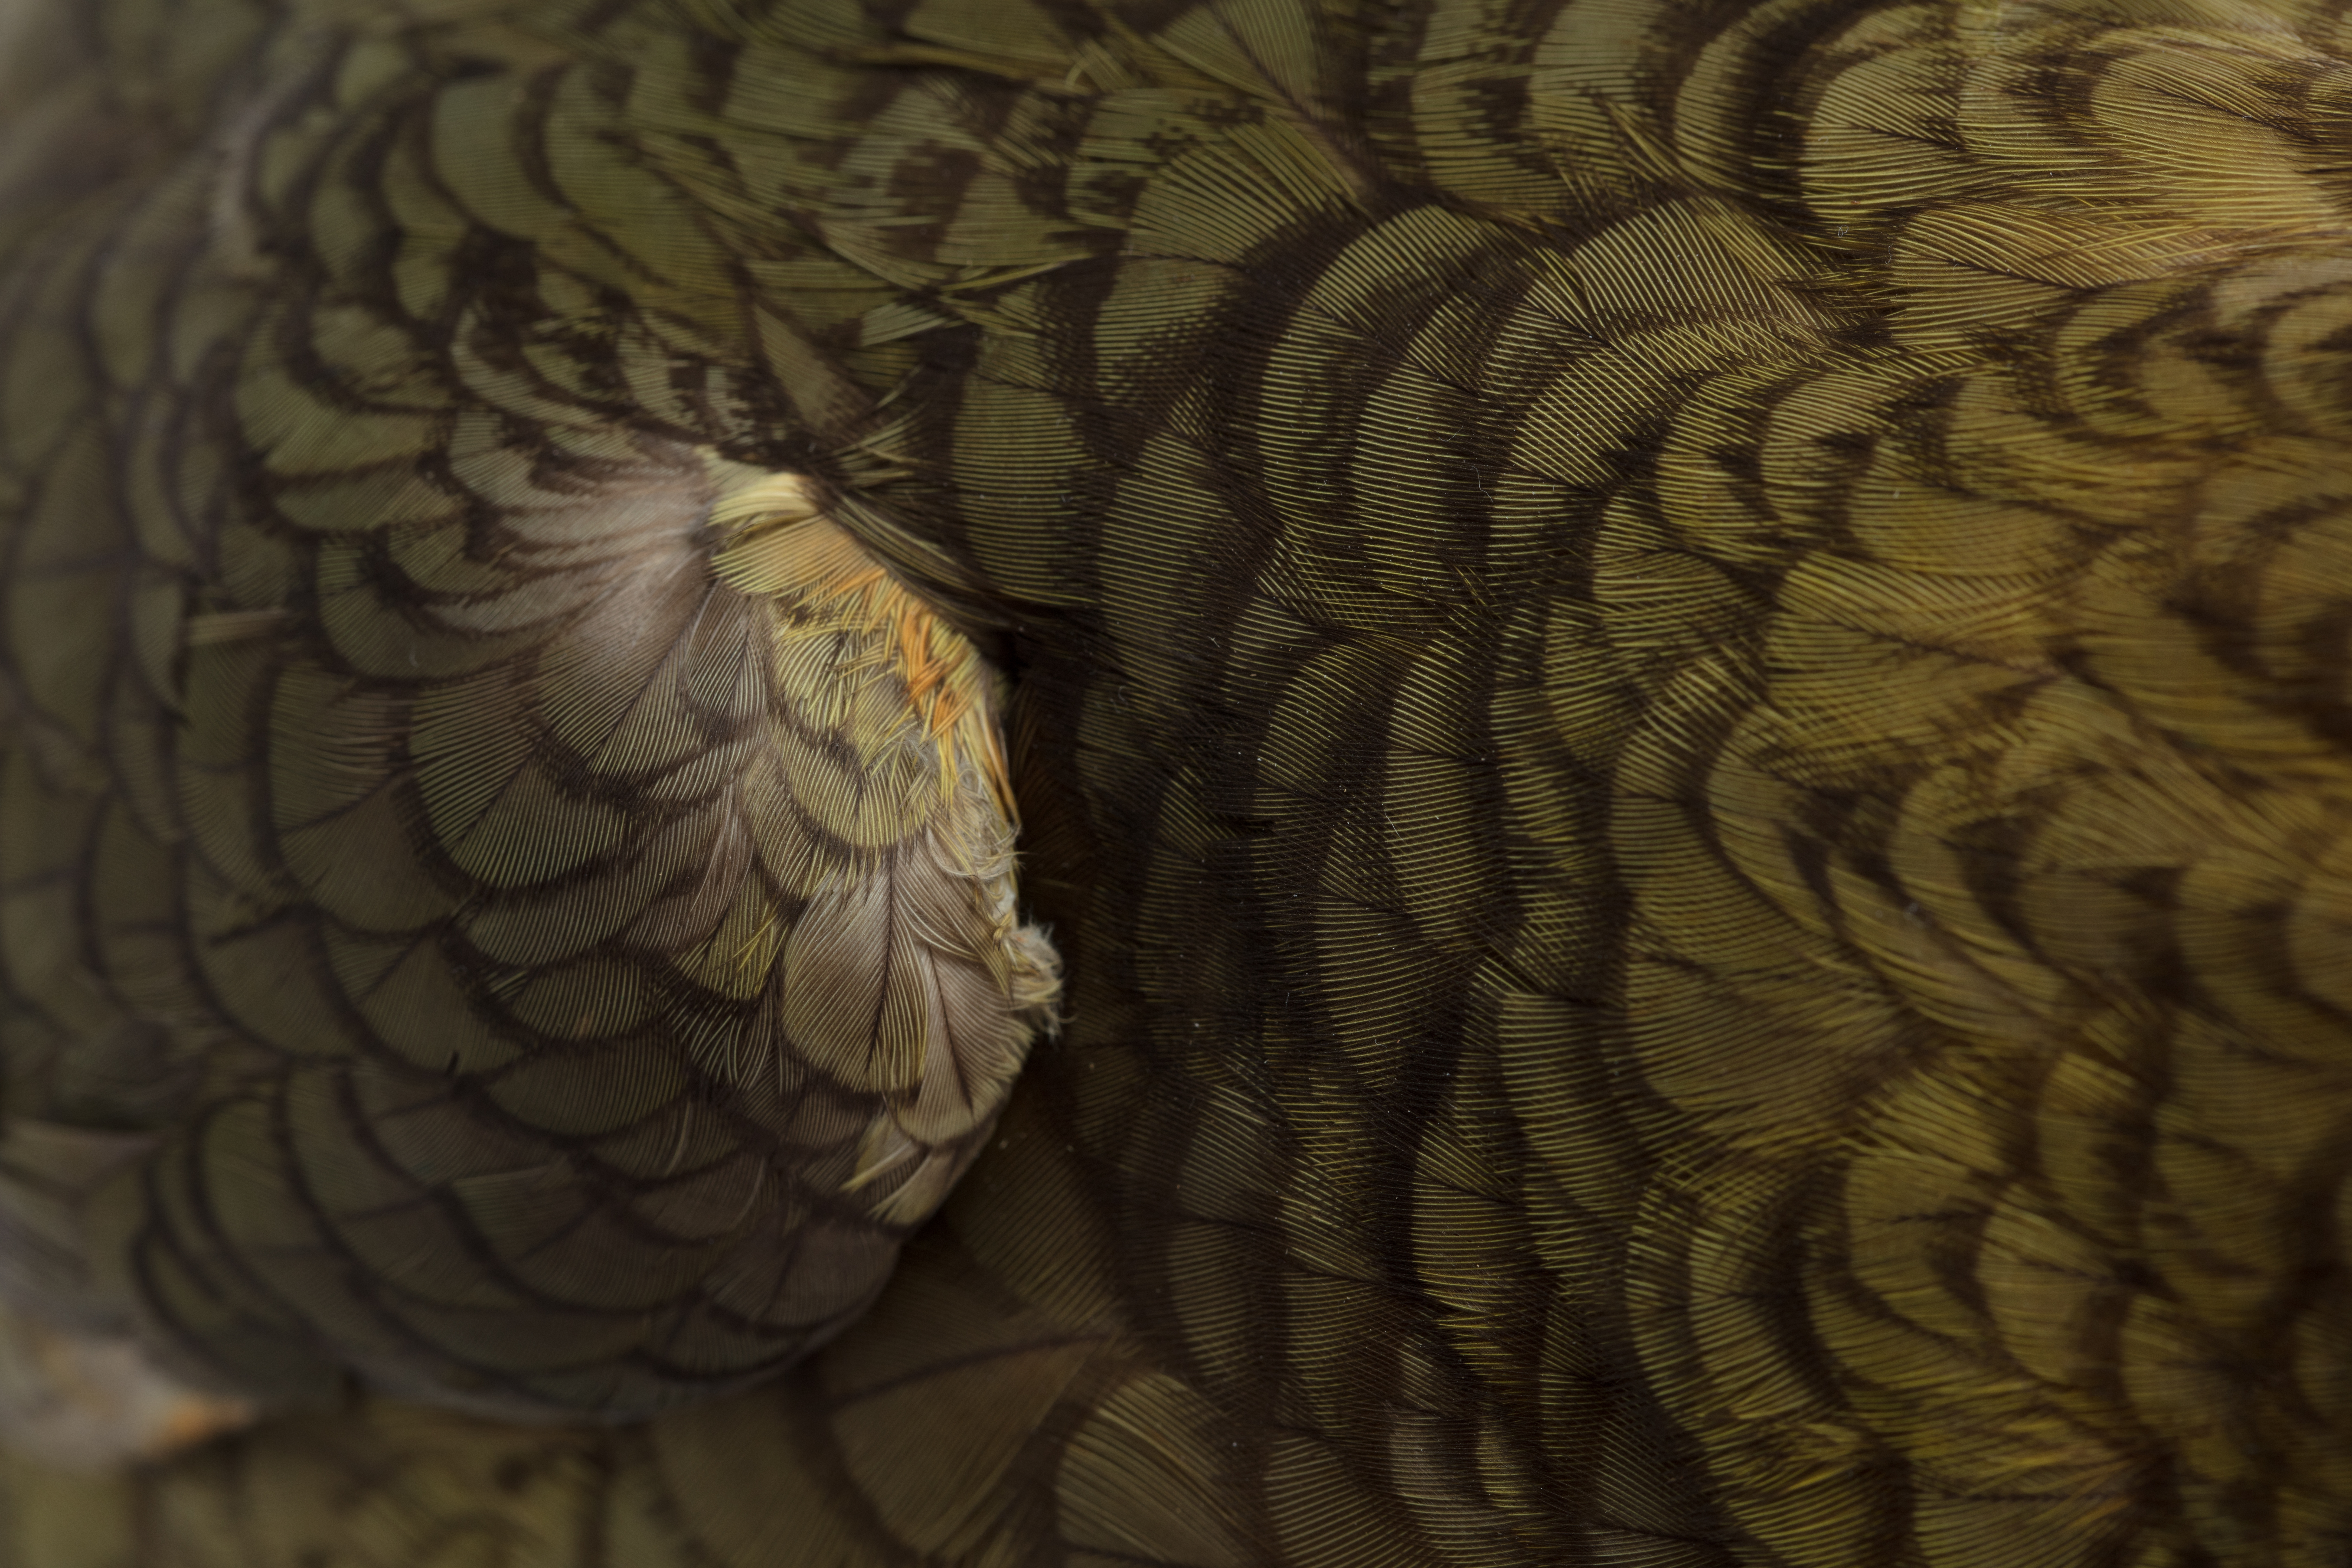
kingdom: Animalia
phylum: Chordata
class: Aves
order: Psittaciformes
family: Psittacidae
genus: Nestor
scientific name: Nestor notabilis
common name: Kea
